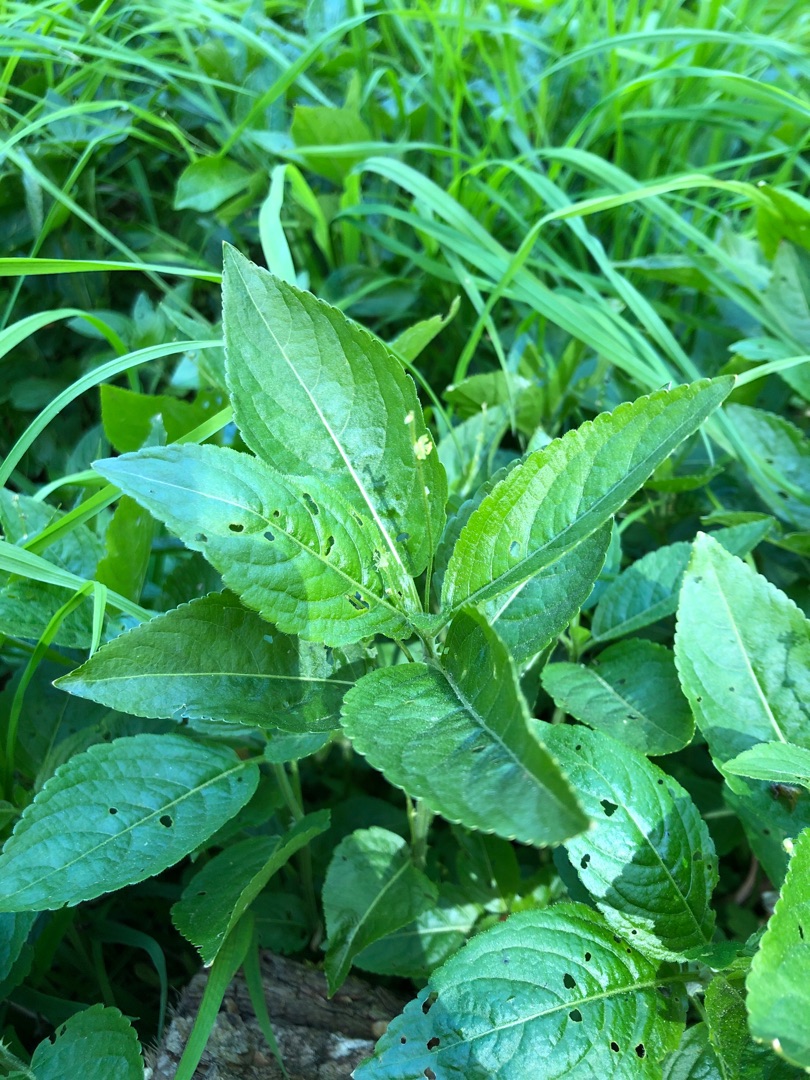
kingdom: Plantae
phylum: Tracheophyta
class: Magnoliopsida
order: Malpighiales
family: Euphorbiaceae
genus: Mercurialis
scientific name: Mercurialis perennis
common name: Almindelig bingelurt
